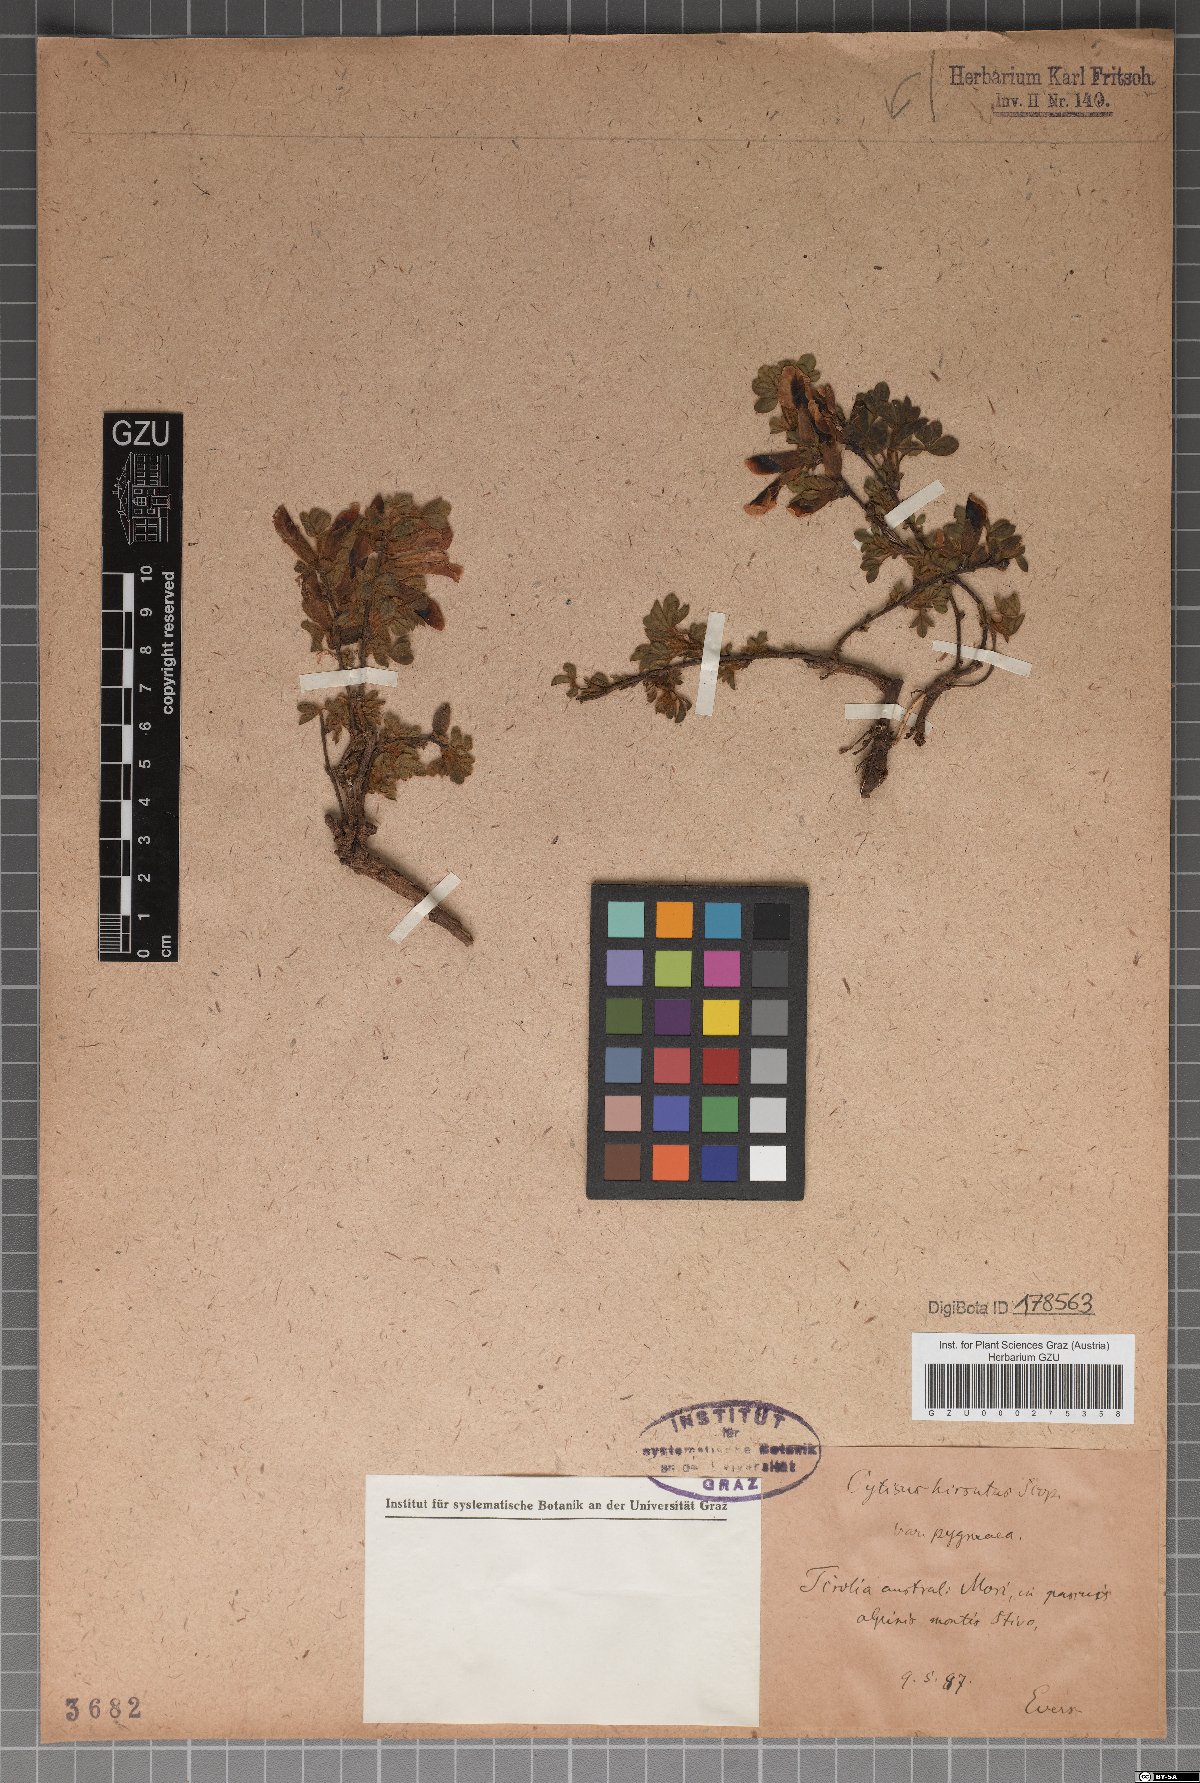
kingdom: Plantae
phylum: Tracheophyta
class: Magnoliopsida
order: Fabales
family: Fabaceae
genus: Chamaecytisus
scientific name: Chamaecytisus hirsutus
